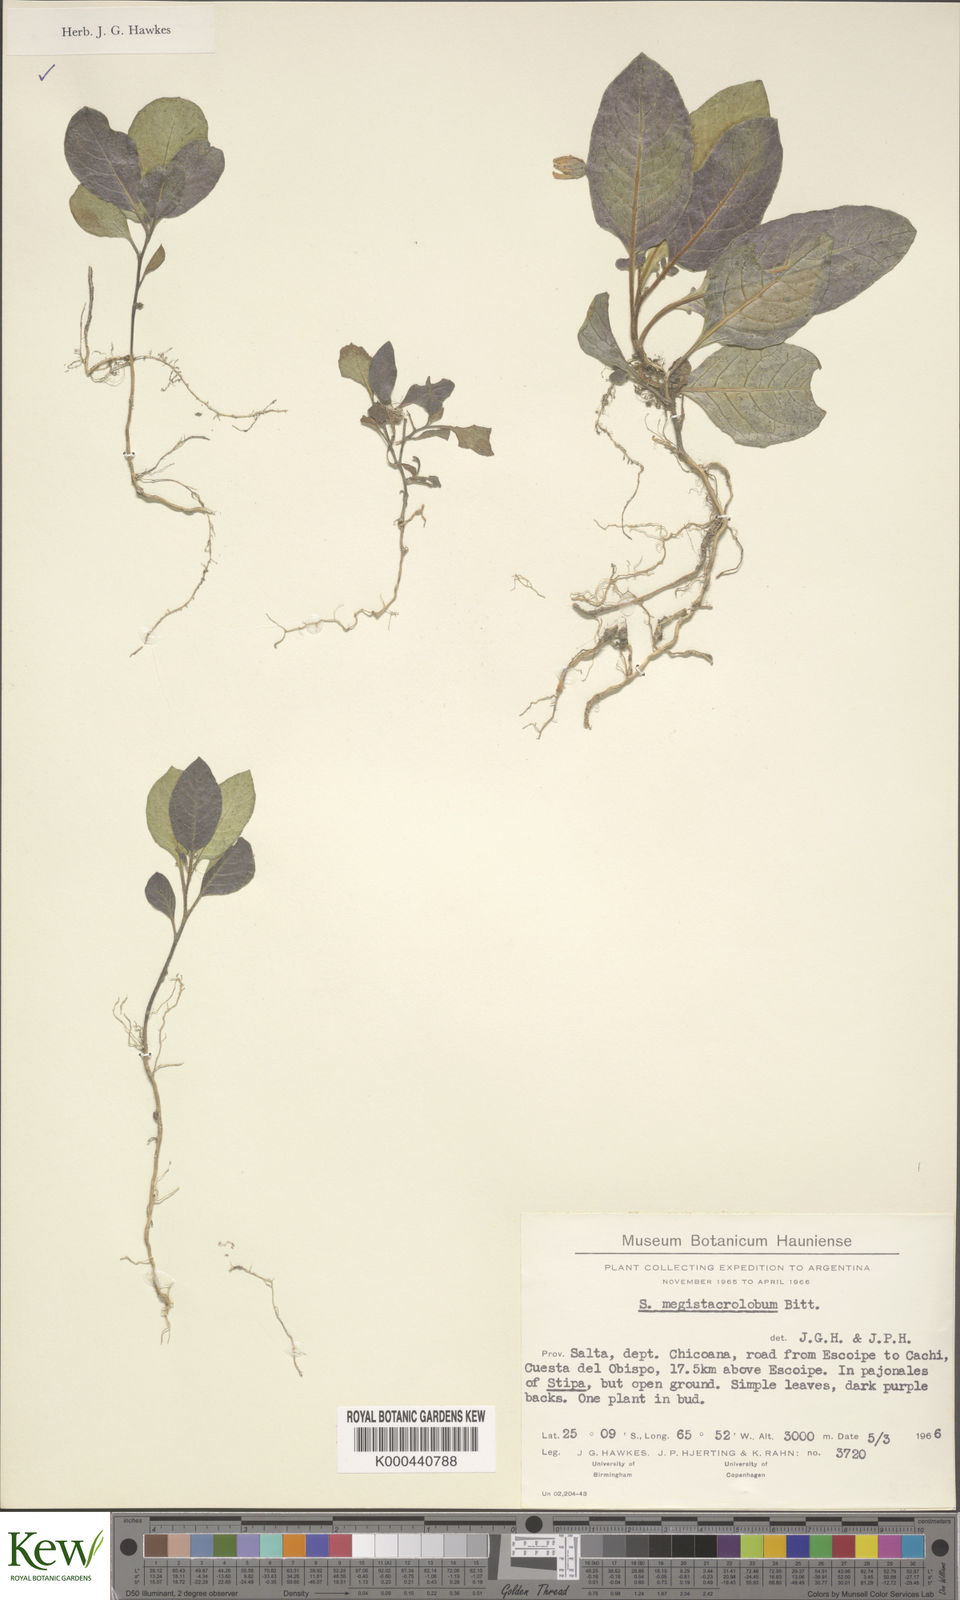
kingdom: Plantae
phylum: Tracheophyta
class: Magnoliopsida
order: Solanales
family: Solanaceae
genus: Solanum
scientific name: Solanum boliviense
